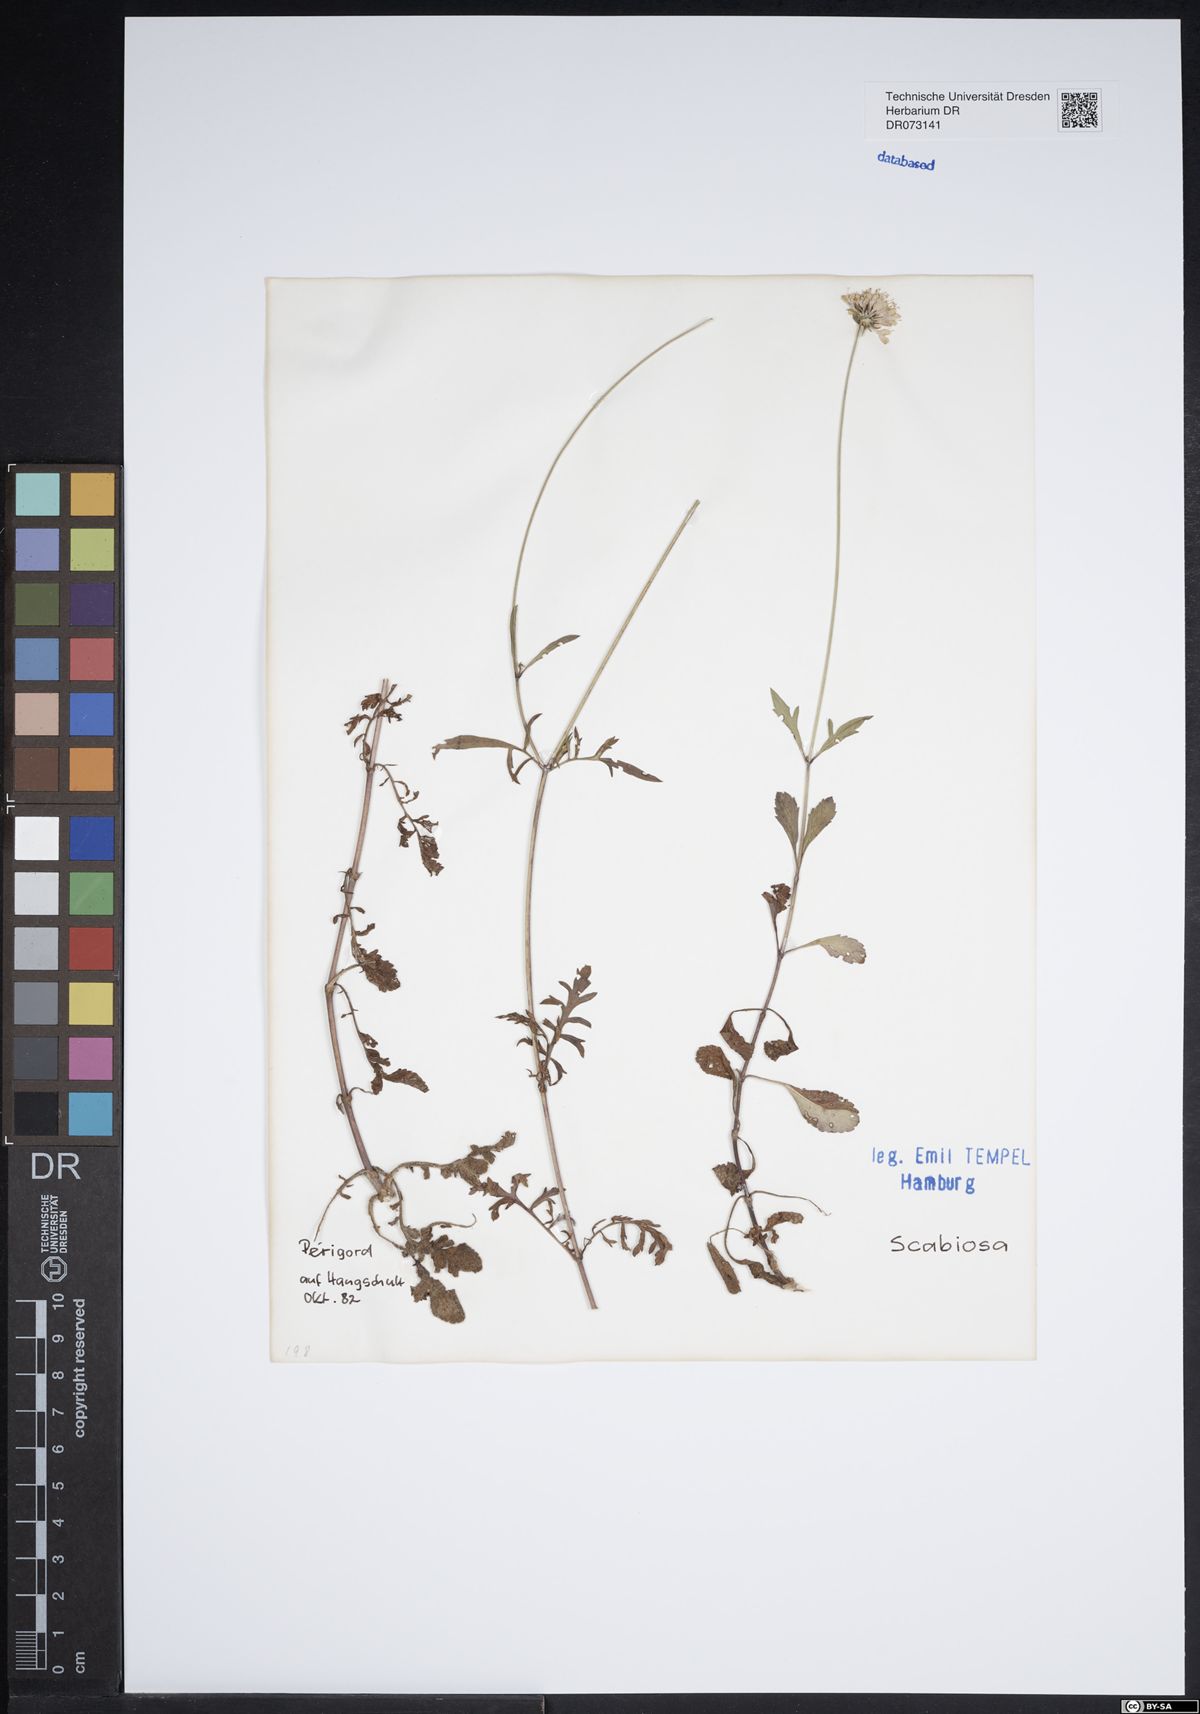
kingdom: Plantae
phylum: Tracheophyta
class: Magnoliopsida
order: Dipsacales
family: Caprifoliaceae
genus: Scabiosa
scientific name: Scabiosa
